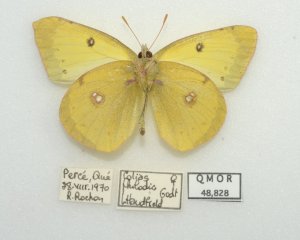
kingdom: Animalia
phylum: Arthropoda
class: Insecta
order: Lepidoptera
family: Pieridae
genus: Colias
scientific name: Colias philodice
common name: Clouded Sulphur
